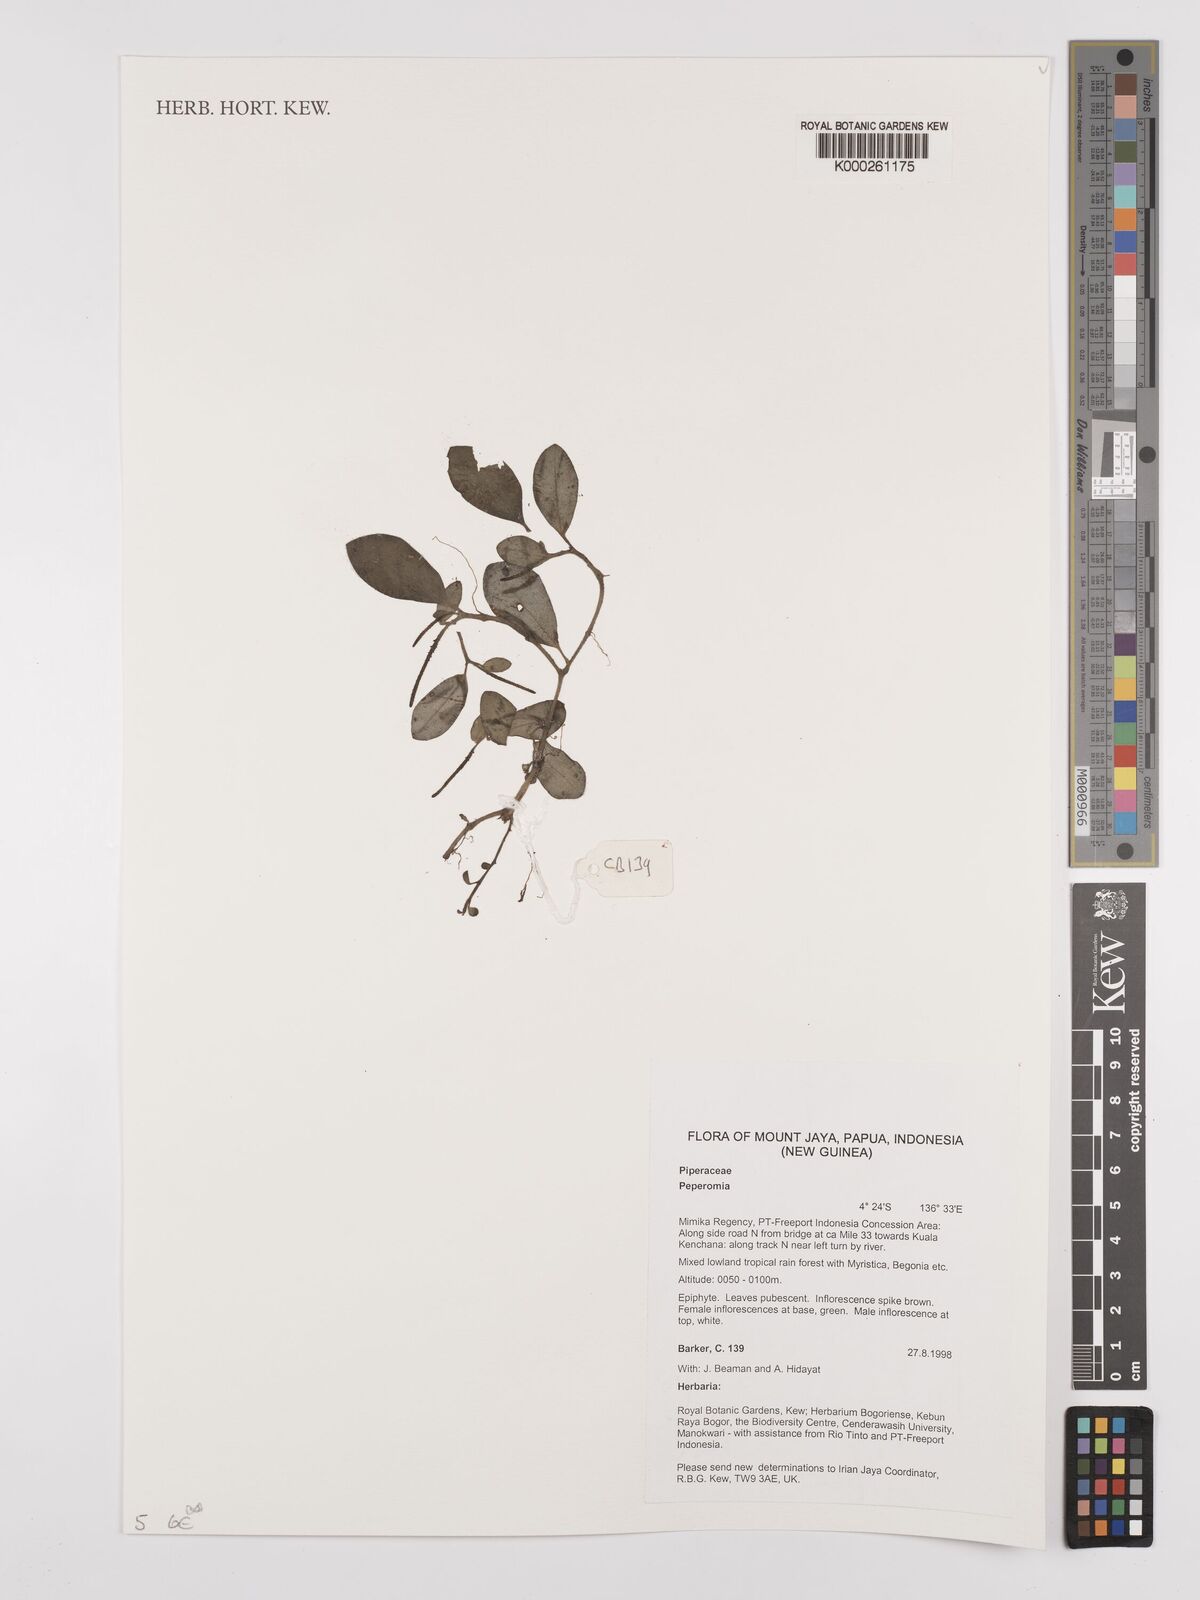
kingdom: Plantae
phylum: Tracheophyta
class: Magnoliopsida
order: Piperales
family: Piperaceae
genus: Peperomia
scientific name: Peperomia
